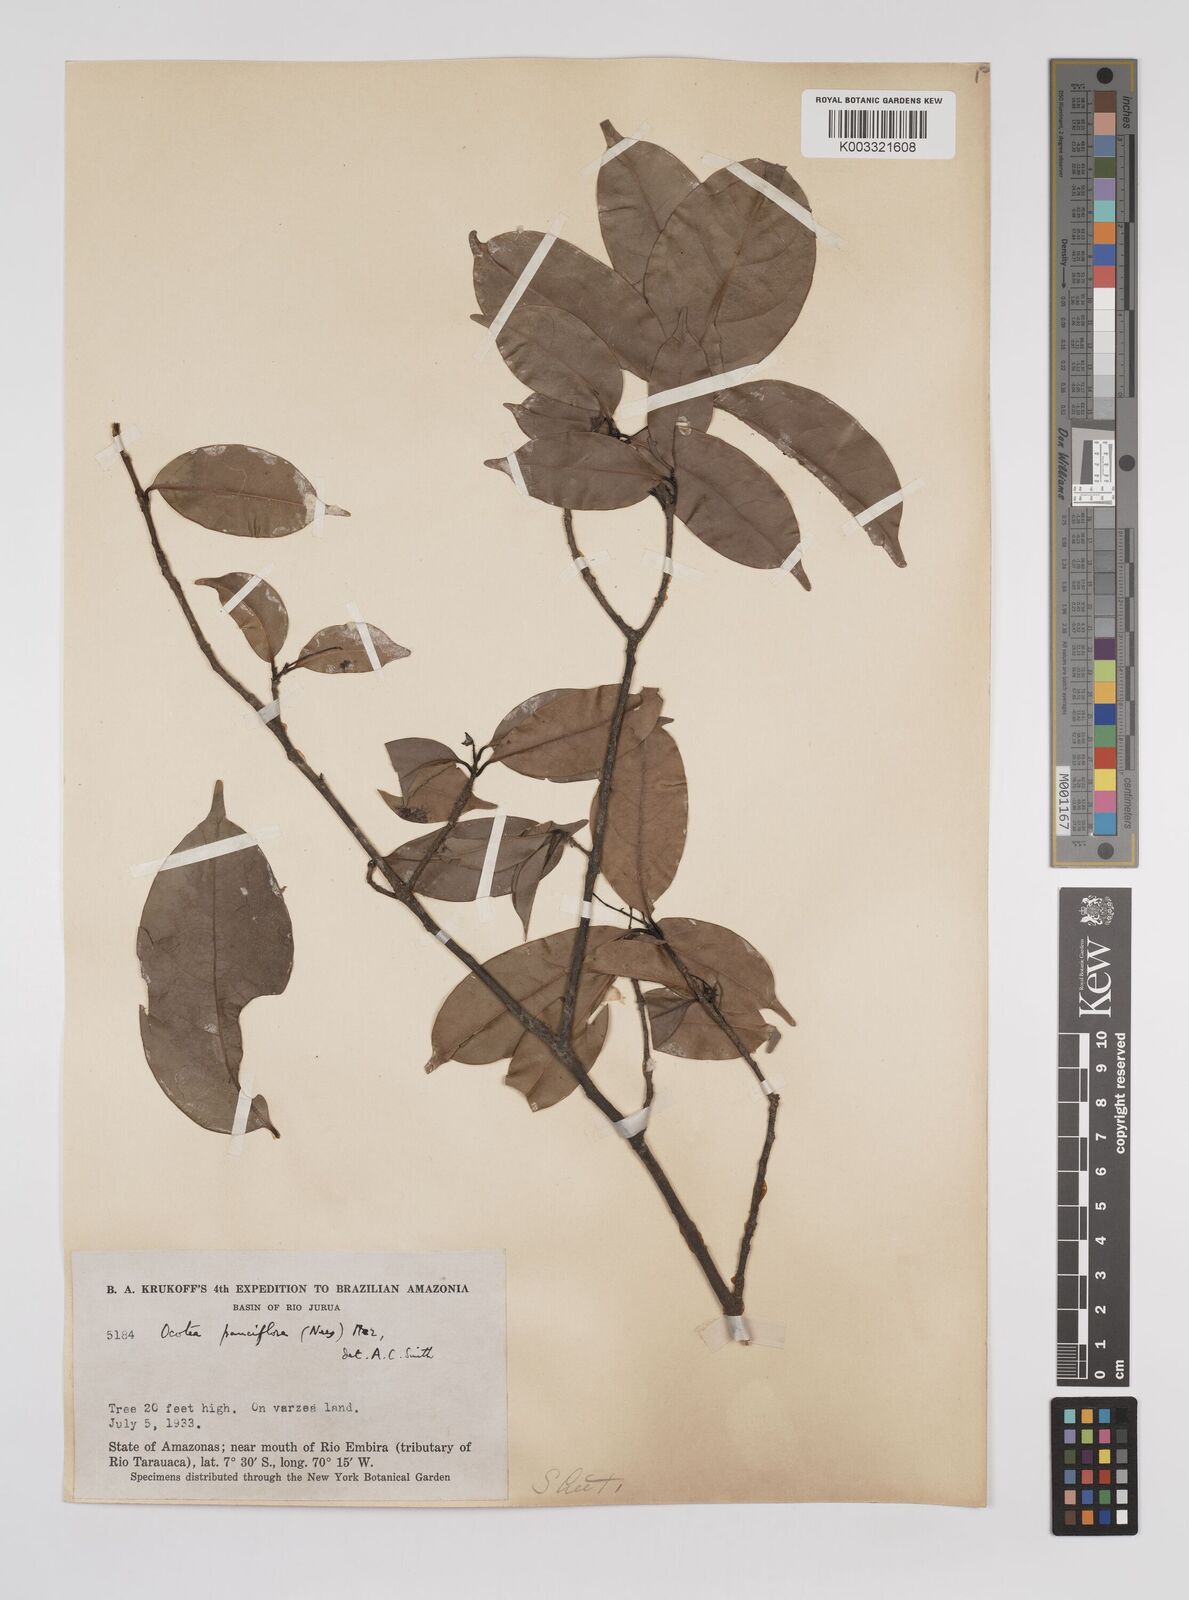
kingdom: Plantae
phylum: Tracheophyta
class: Magnoliopsida
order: Laurales
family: Lauraceae
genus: Ocotea
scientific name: Ocotea pauciflora
